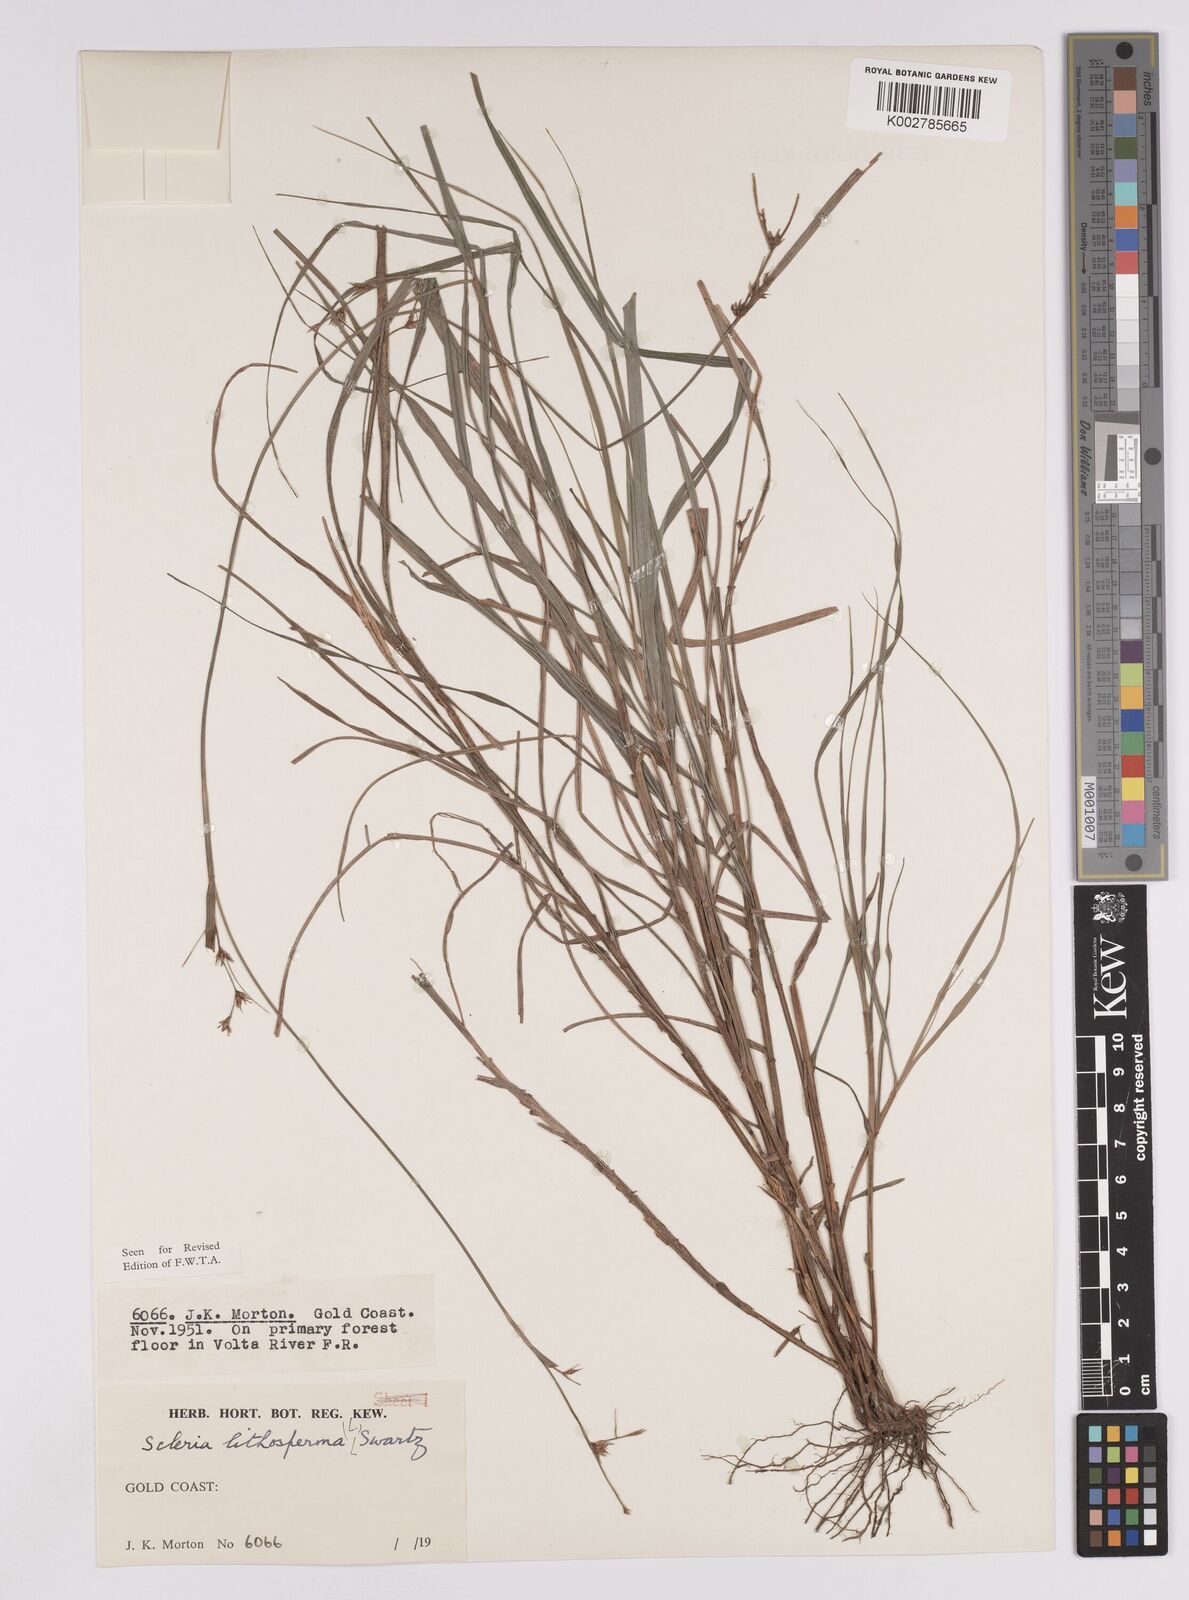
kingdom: Plantae
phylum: Tracheophyta
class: Liliopsida
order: Poales
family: Cyperaceae
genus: Scleria
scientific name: Scleria lithosperma
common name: Florida keys nut-rush
